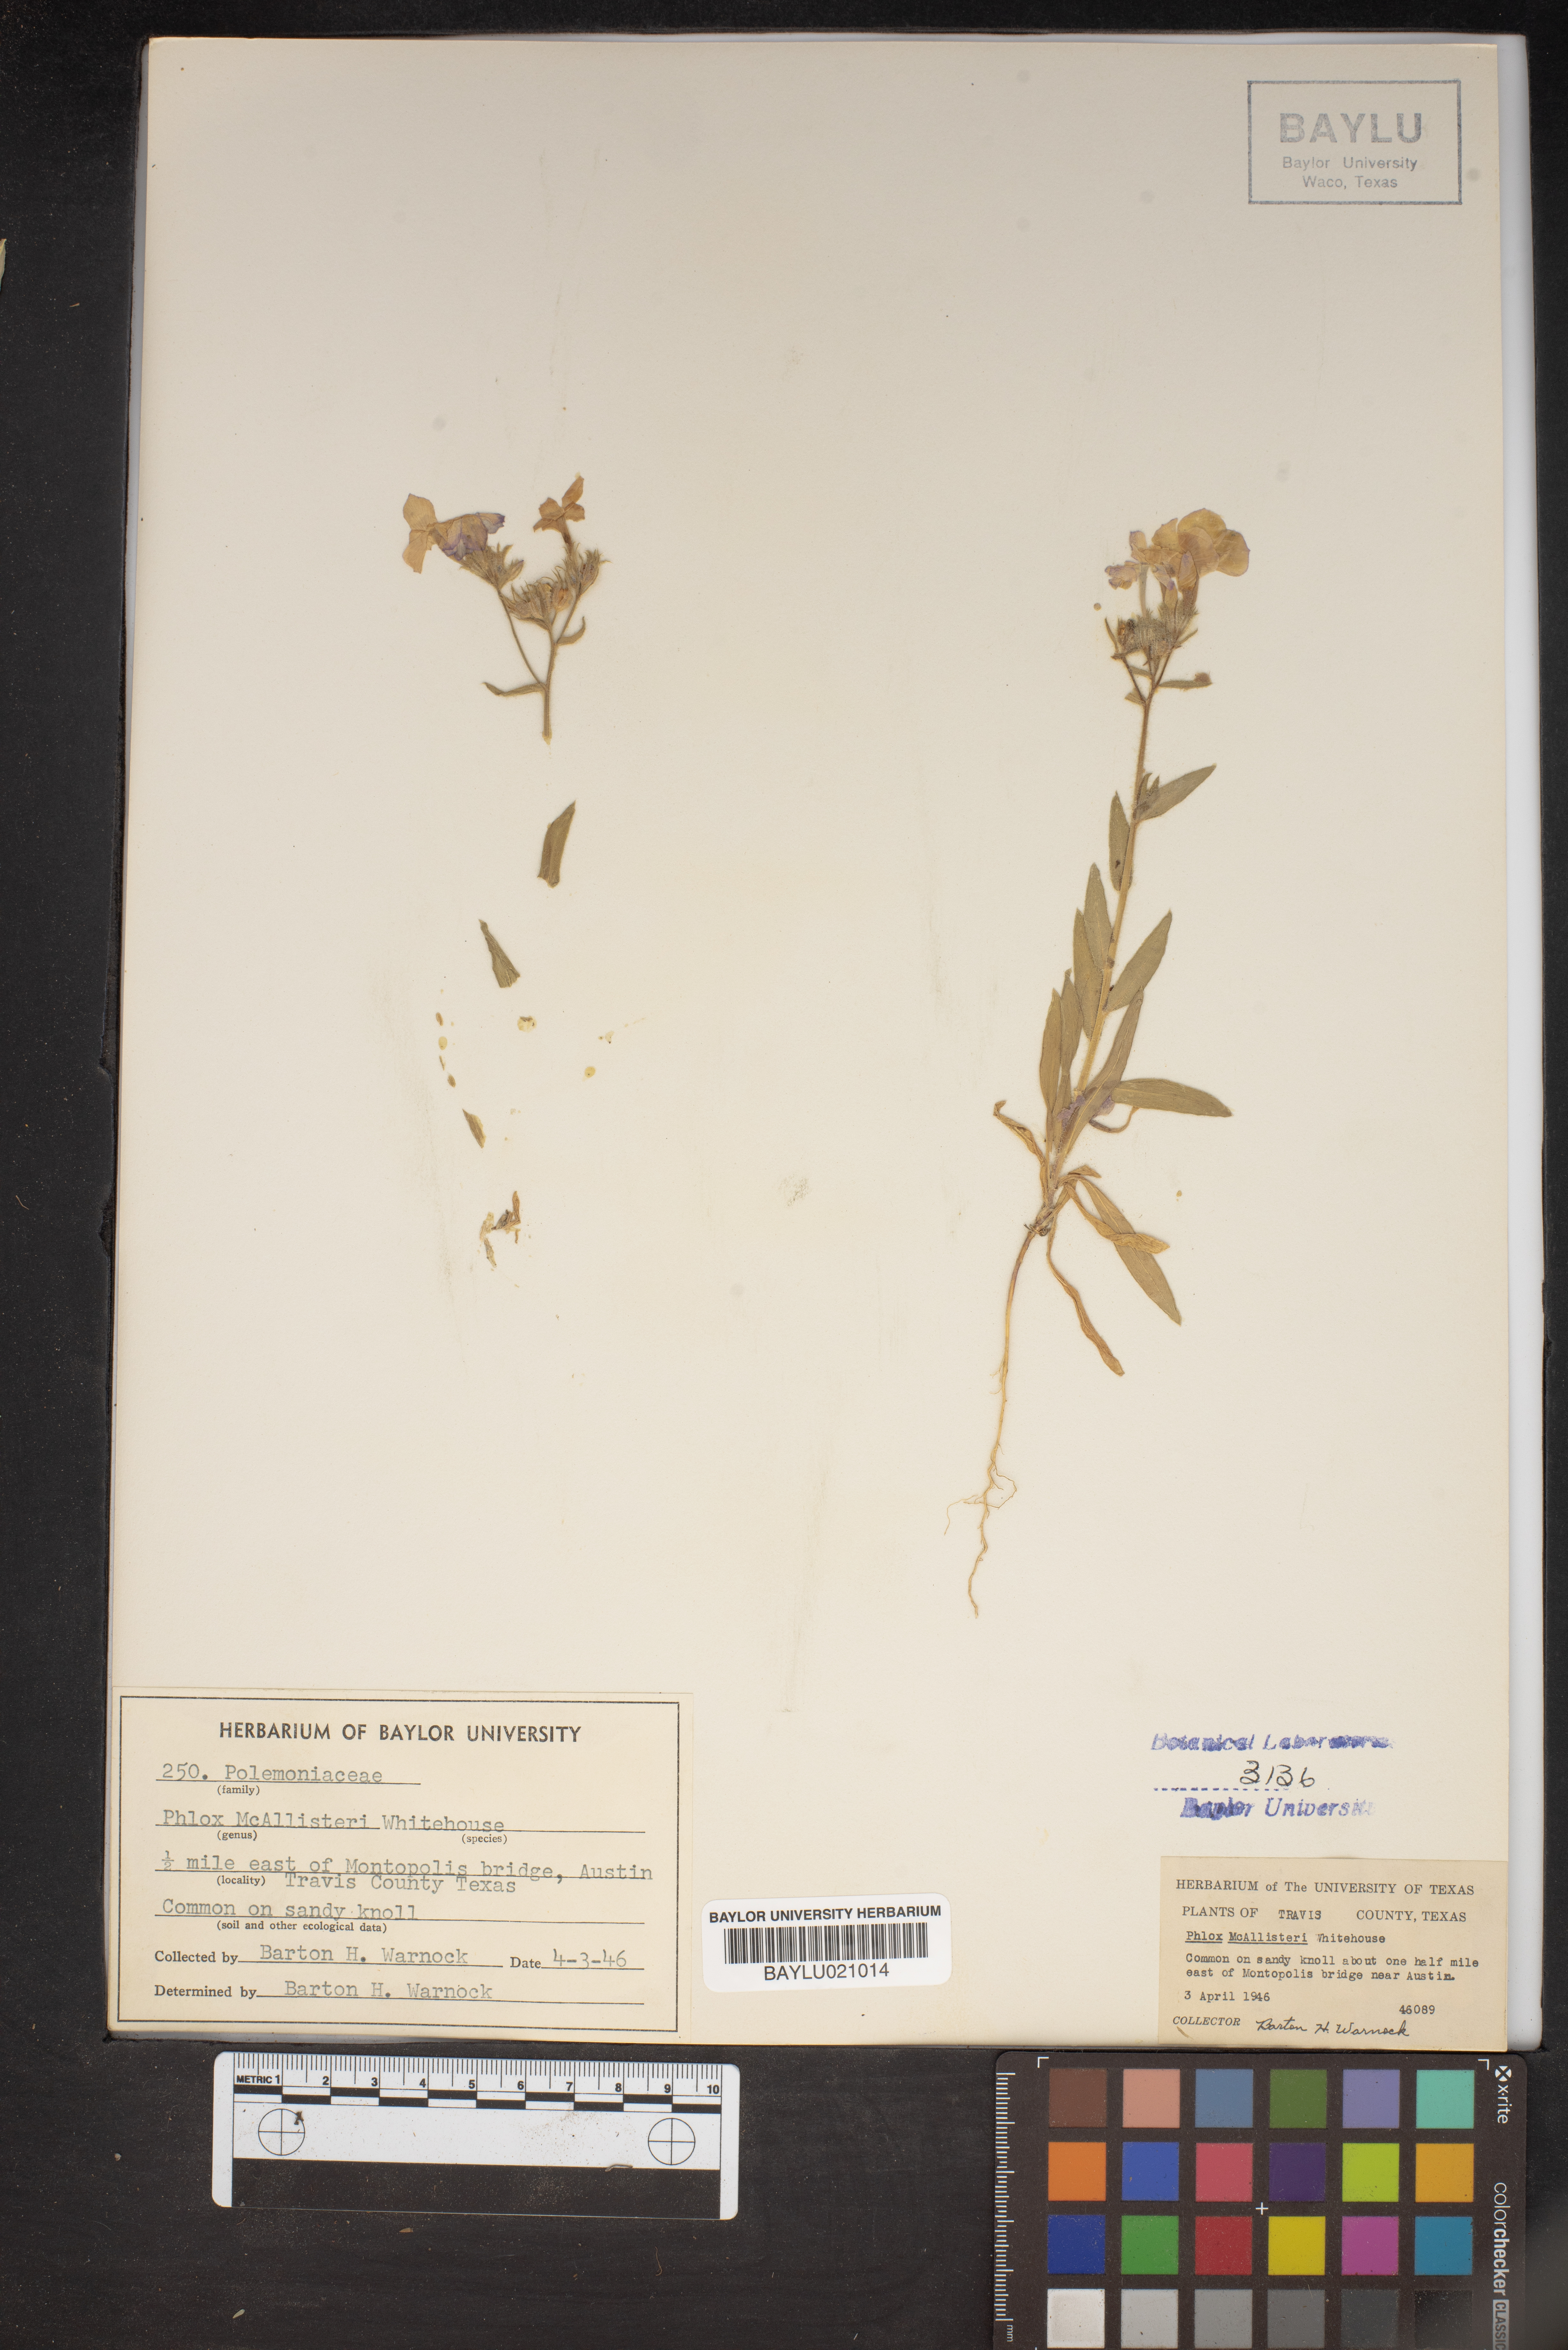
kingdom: Plantae
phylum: Tracheophyta
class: Magnoliopsida
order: Ericales
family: Polemoniaceae
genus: Phlox
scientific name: Phlox drummondii
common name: Drummond's phlox
